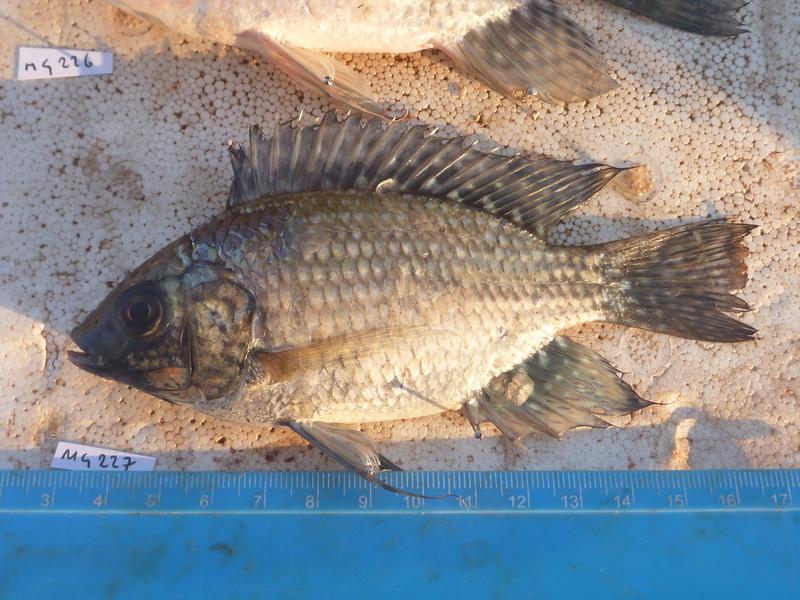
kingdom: Animalia
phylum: Chordata
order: Perciformes
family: Cichlidae
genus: Oreochromis
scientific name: Oreochromis leucostictus
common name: Blue spotted tilapia
